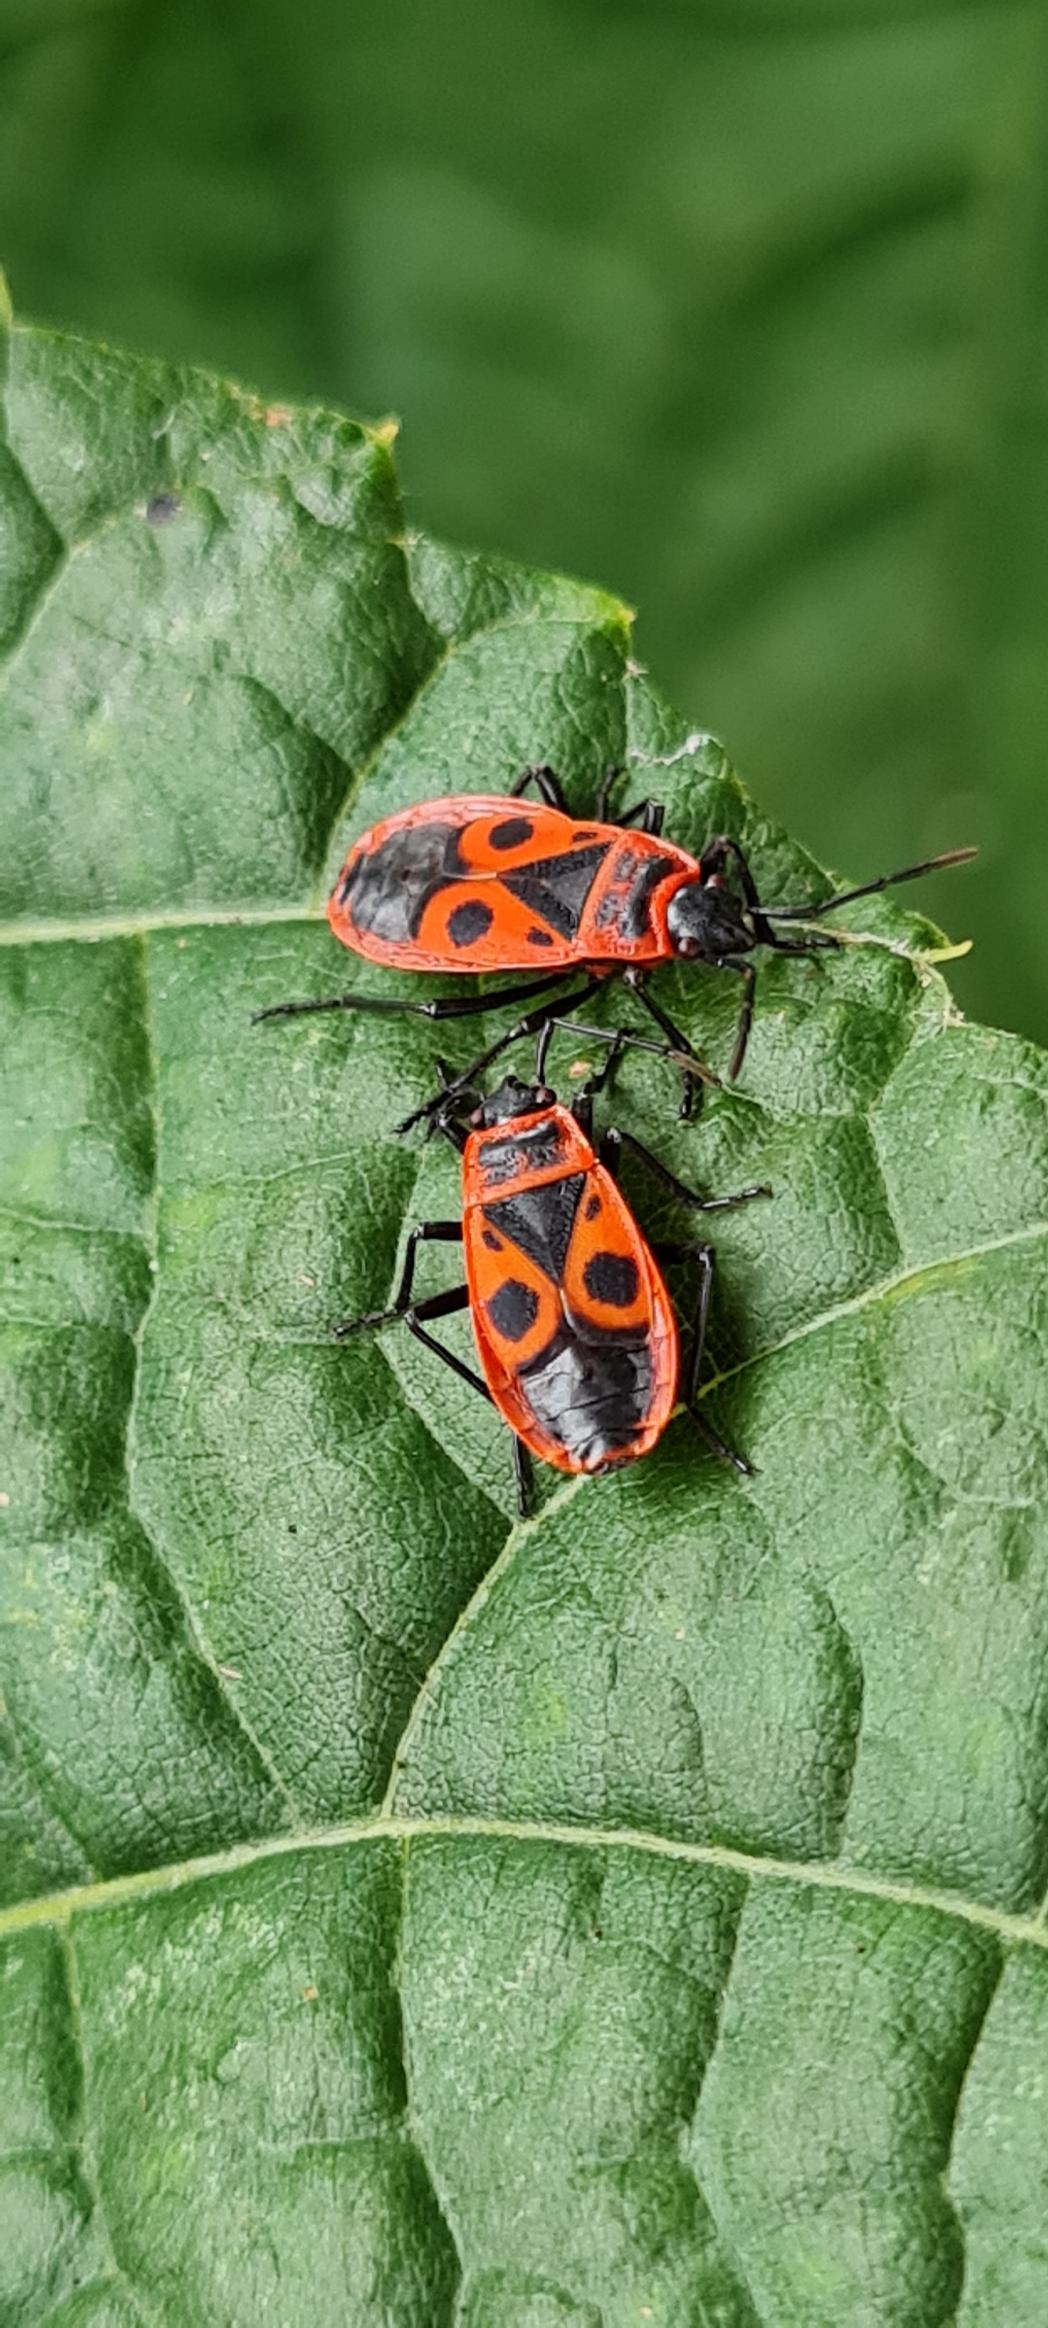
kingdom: Animalia
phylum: Arthropoda
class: Insecta
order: Hemiptera
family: Pyrrhocoridae
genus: Pyrrhocoris
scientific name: Pyrrhocoris apterus
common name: Ildtæge
